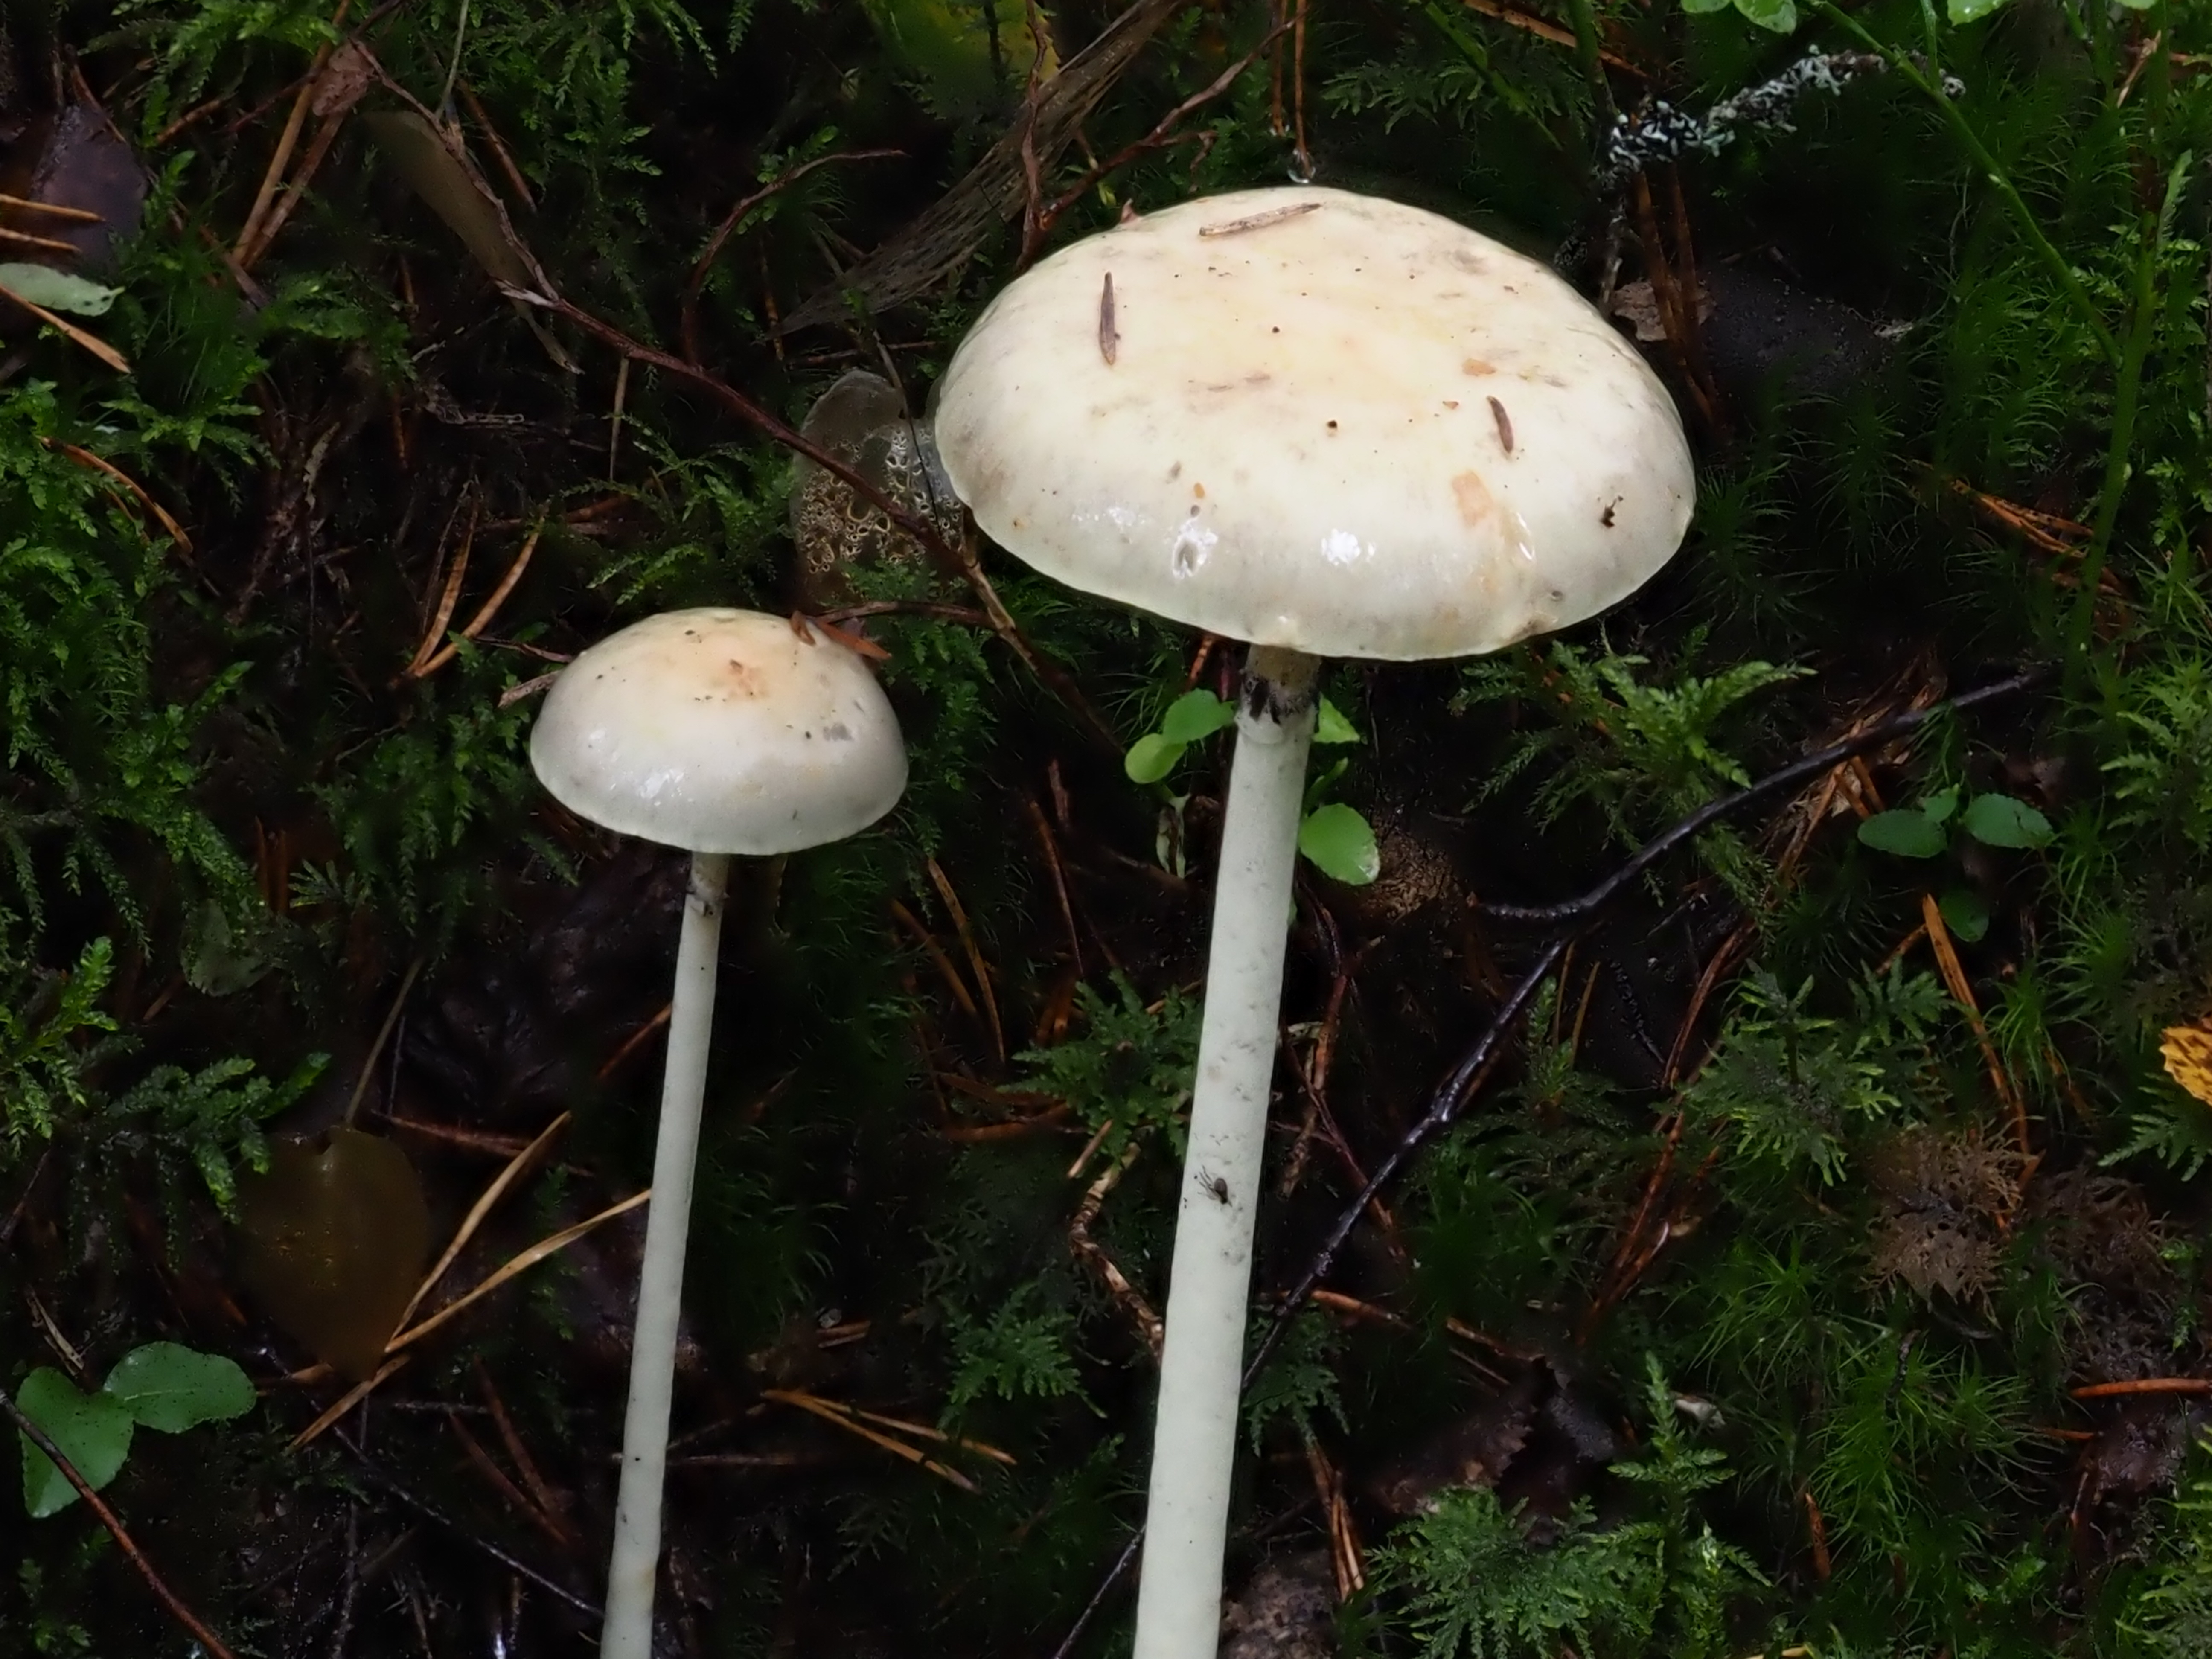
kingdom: Fungi
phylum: Basidiomycota
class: Agaricomycetes
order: Agaricales
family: Strophariaceae
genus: Protostropharia
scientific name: Protostropharia alcis
